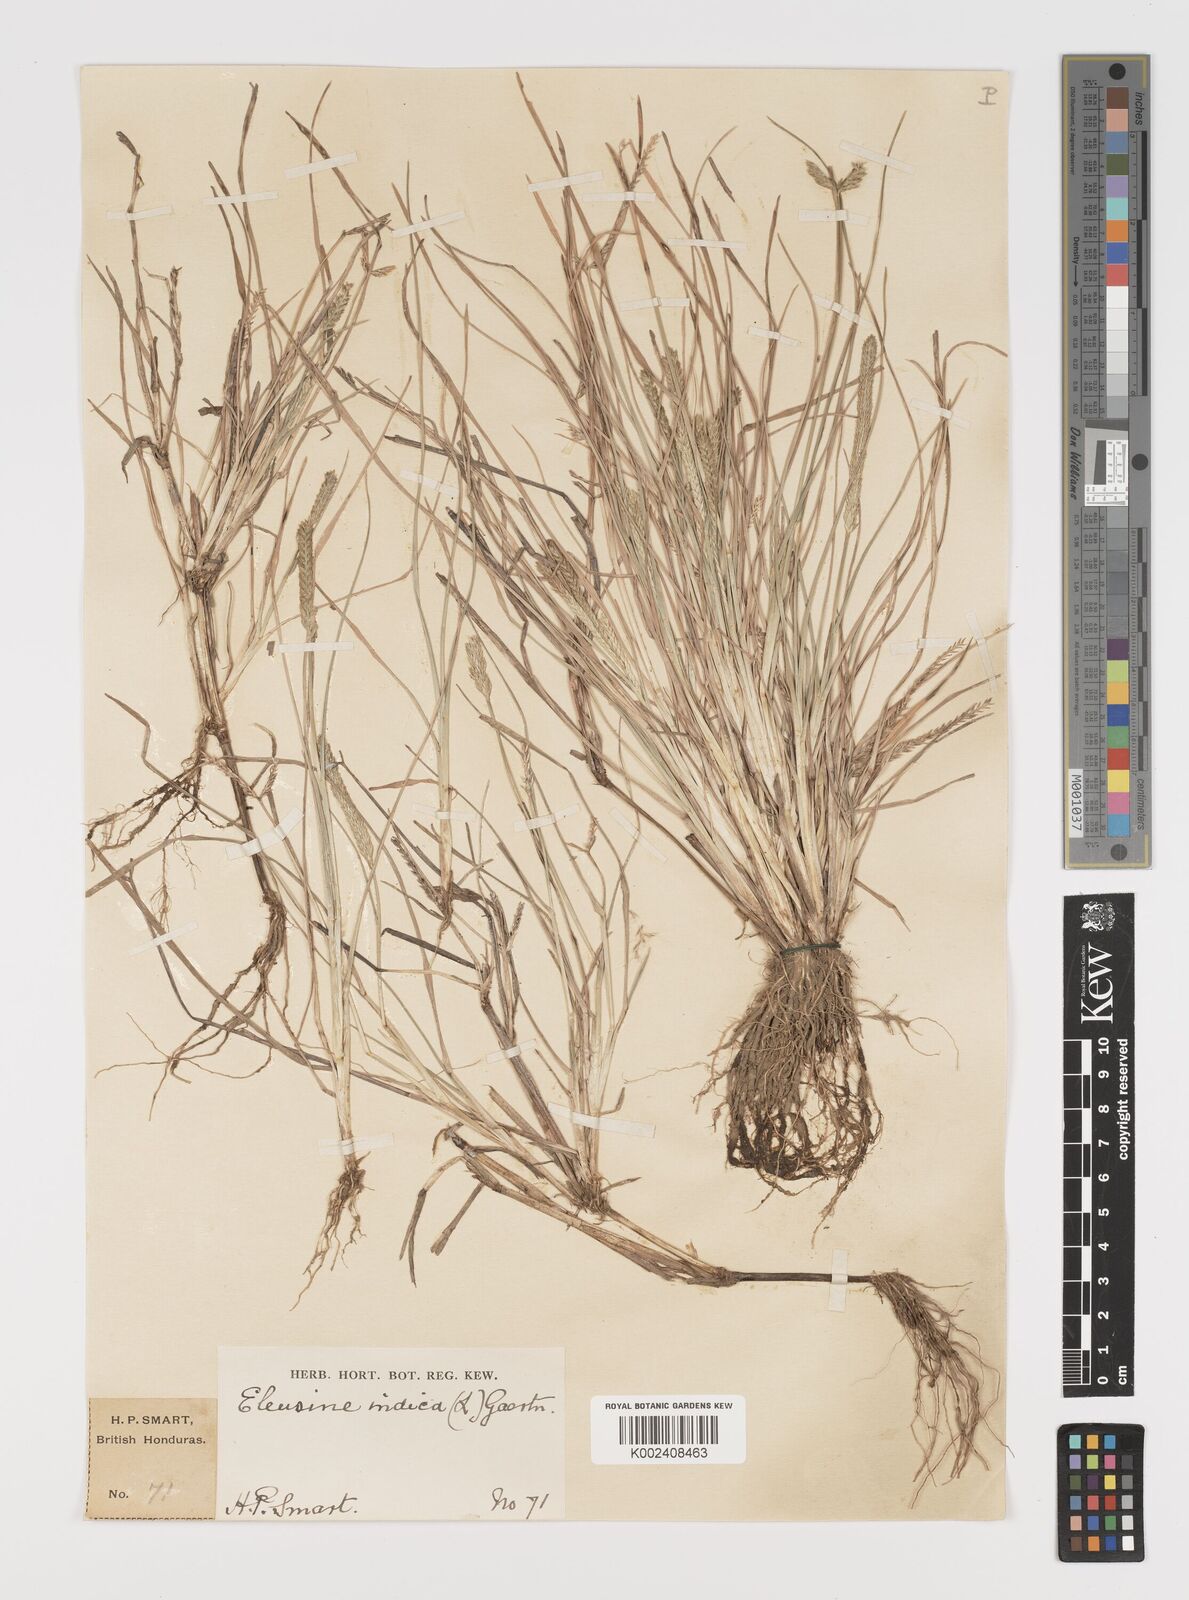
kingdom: Plantae
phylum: Tracheophyta
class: Liliopsida
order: Poales
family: Poaceae
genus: Eleusine
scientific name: Eleusine indica
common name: Yard-grass
